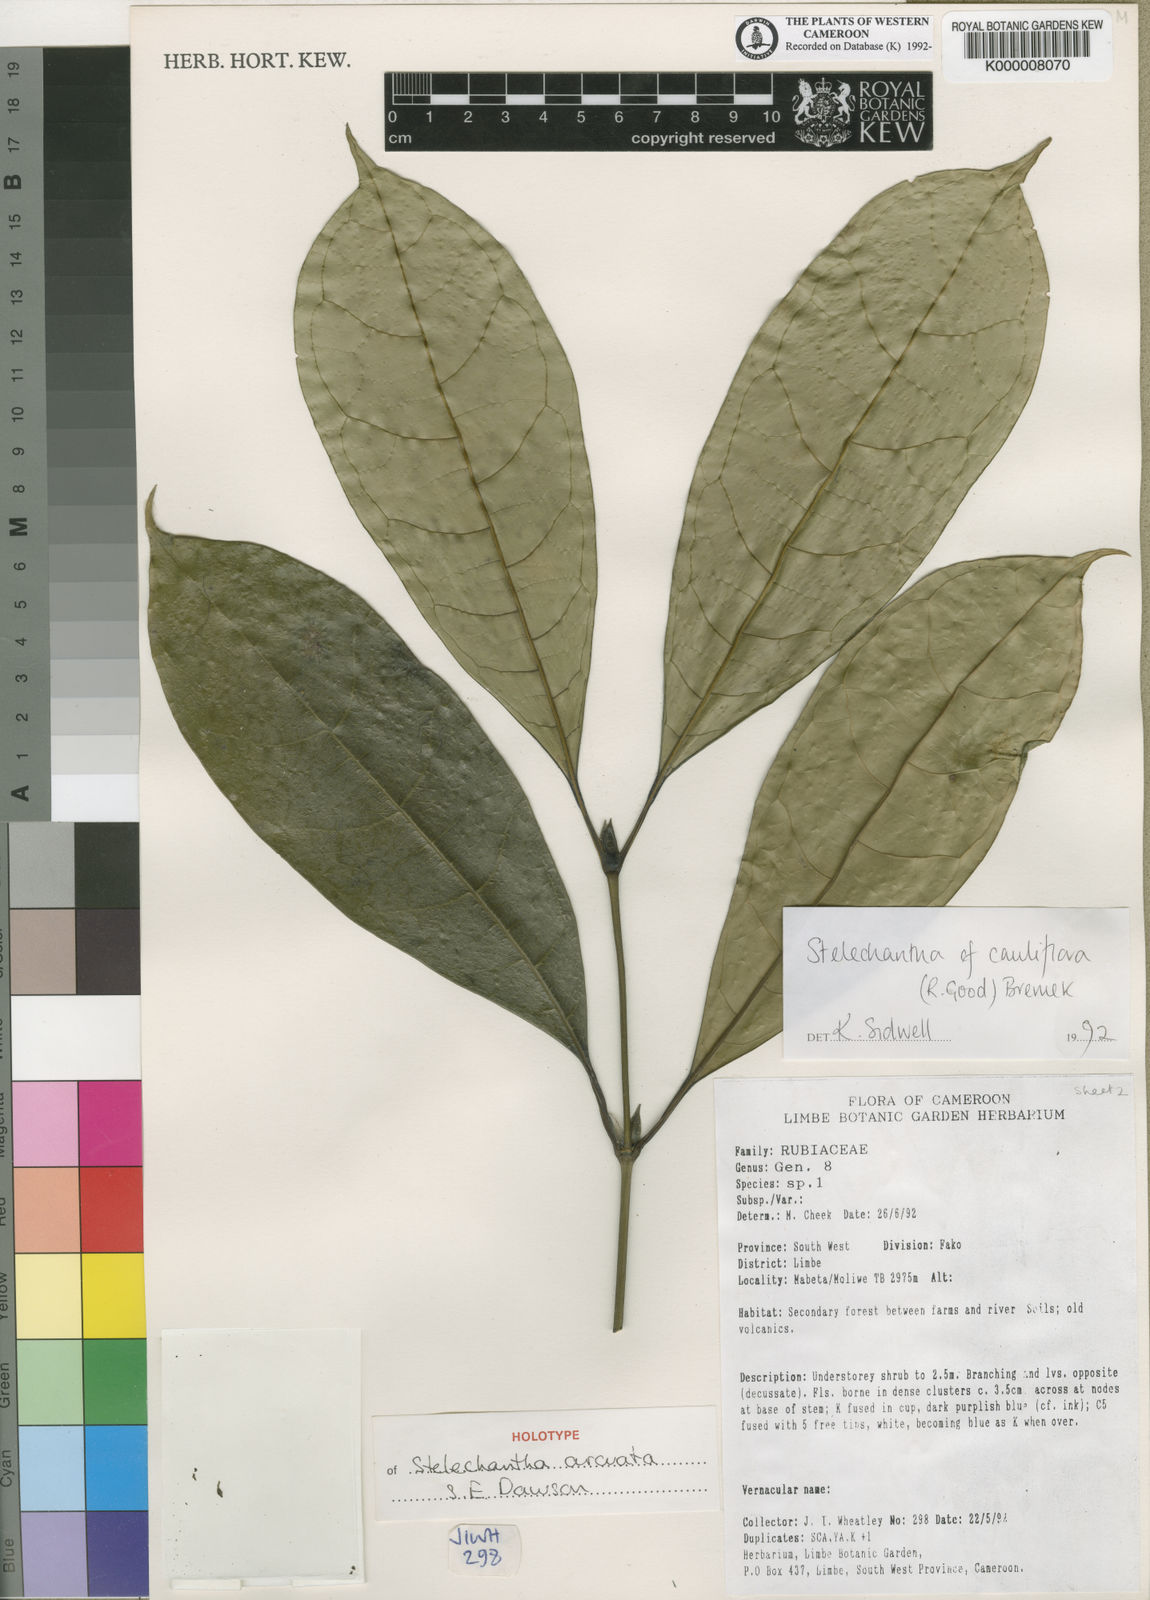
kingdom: Plantae
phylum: Tracheophyta
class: Magnoliopsida
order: Gentianales
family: Rubiaceae
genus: Pauridiantha
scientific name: Pauridiantha arcuata
